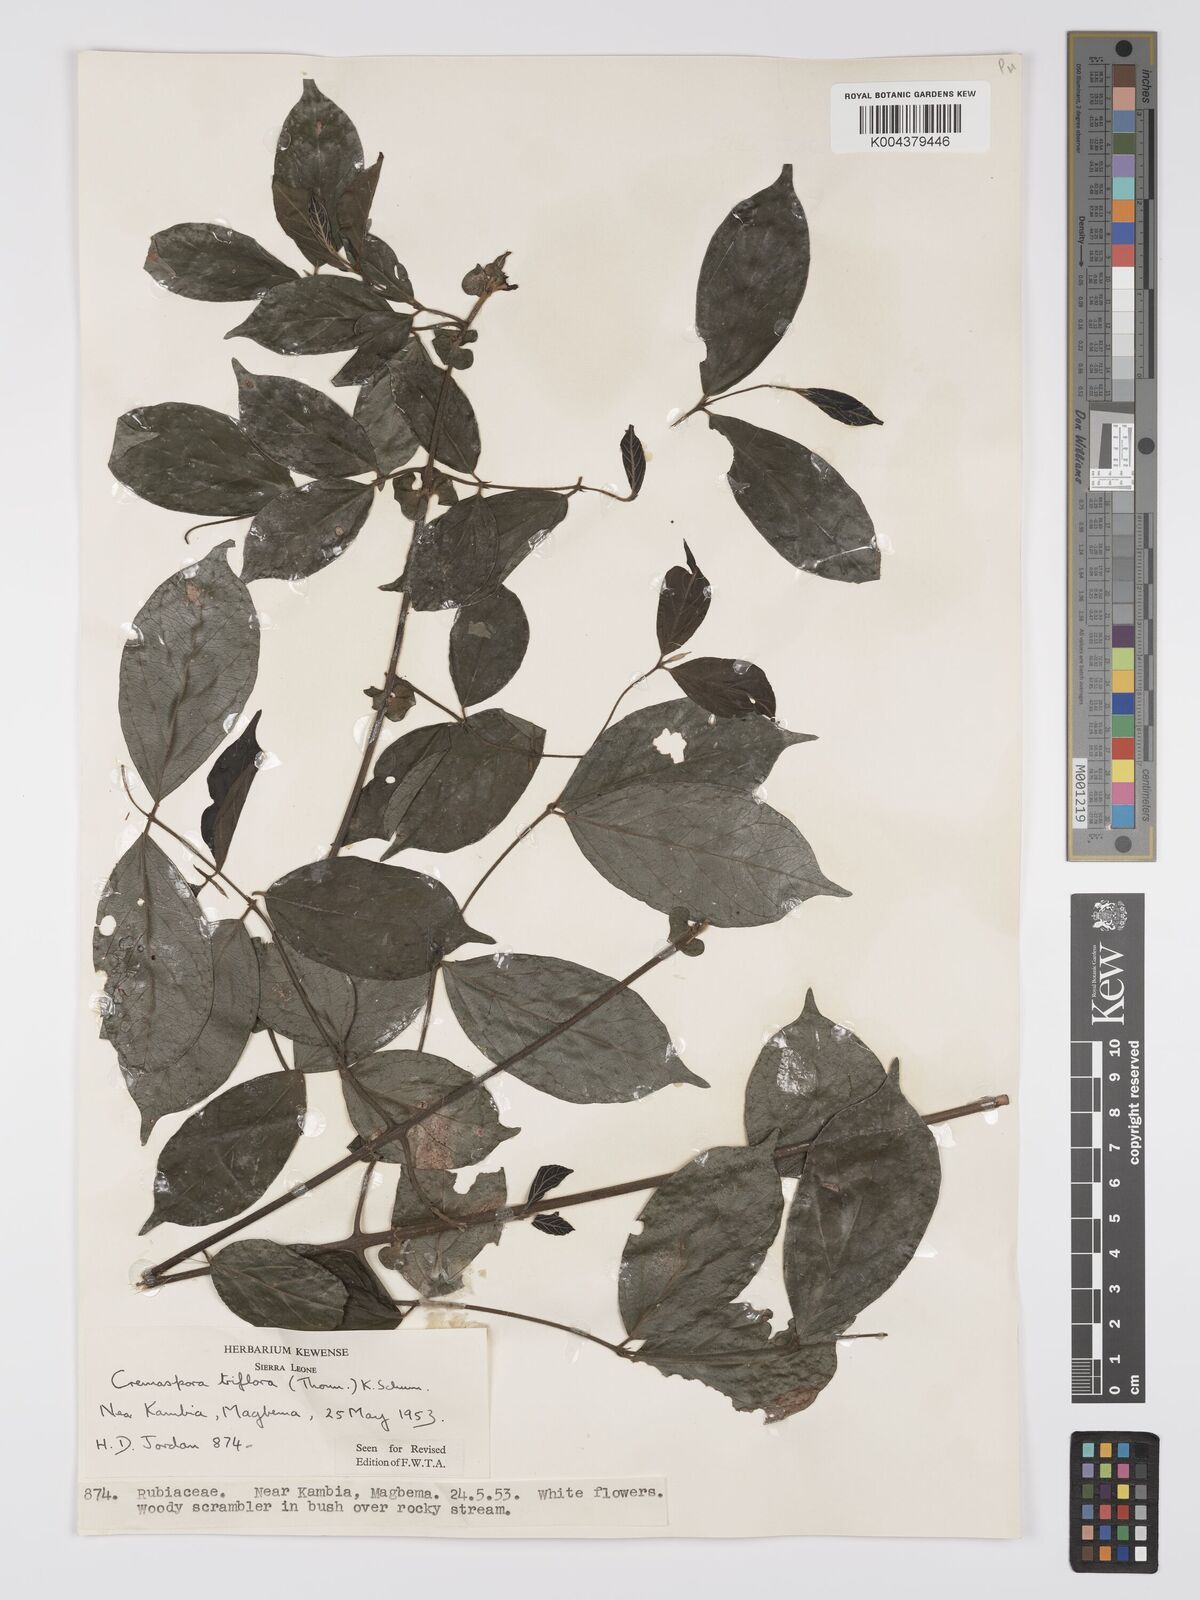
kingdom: Plantae
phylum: Tracheophyta
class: Magnoliopsida
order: Gentianales
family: Rubiaceae
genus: Cremaspora
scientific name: Cremaspora triflora
